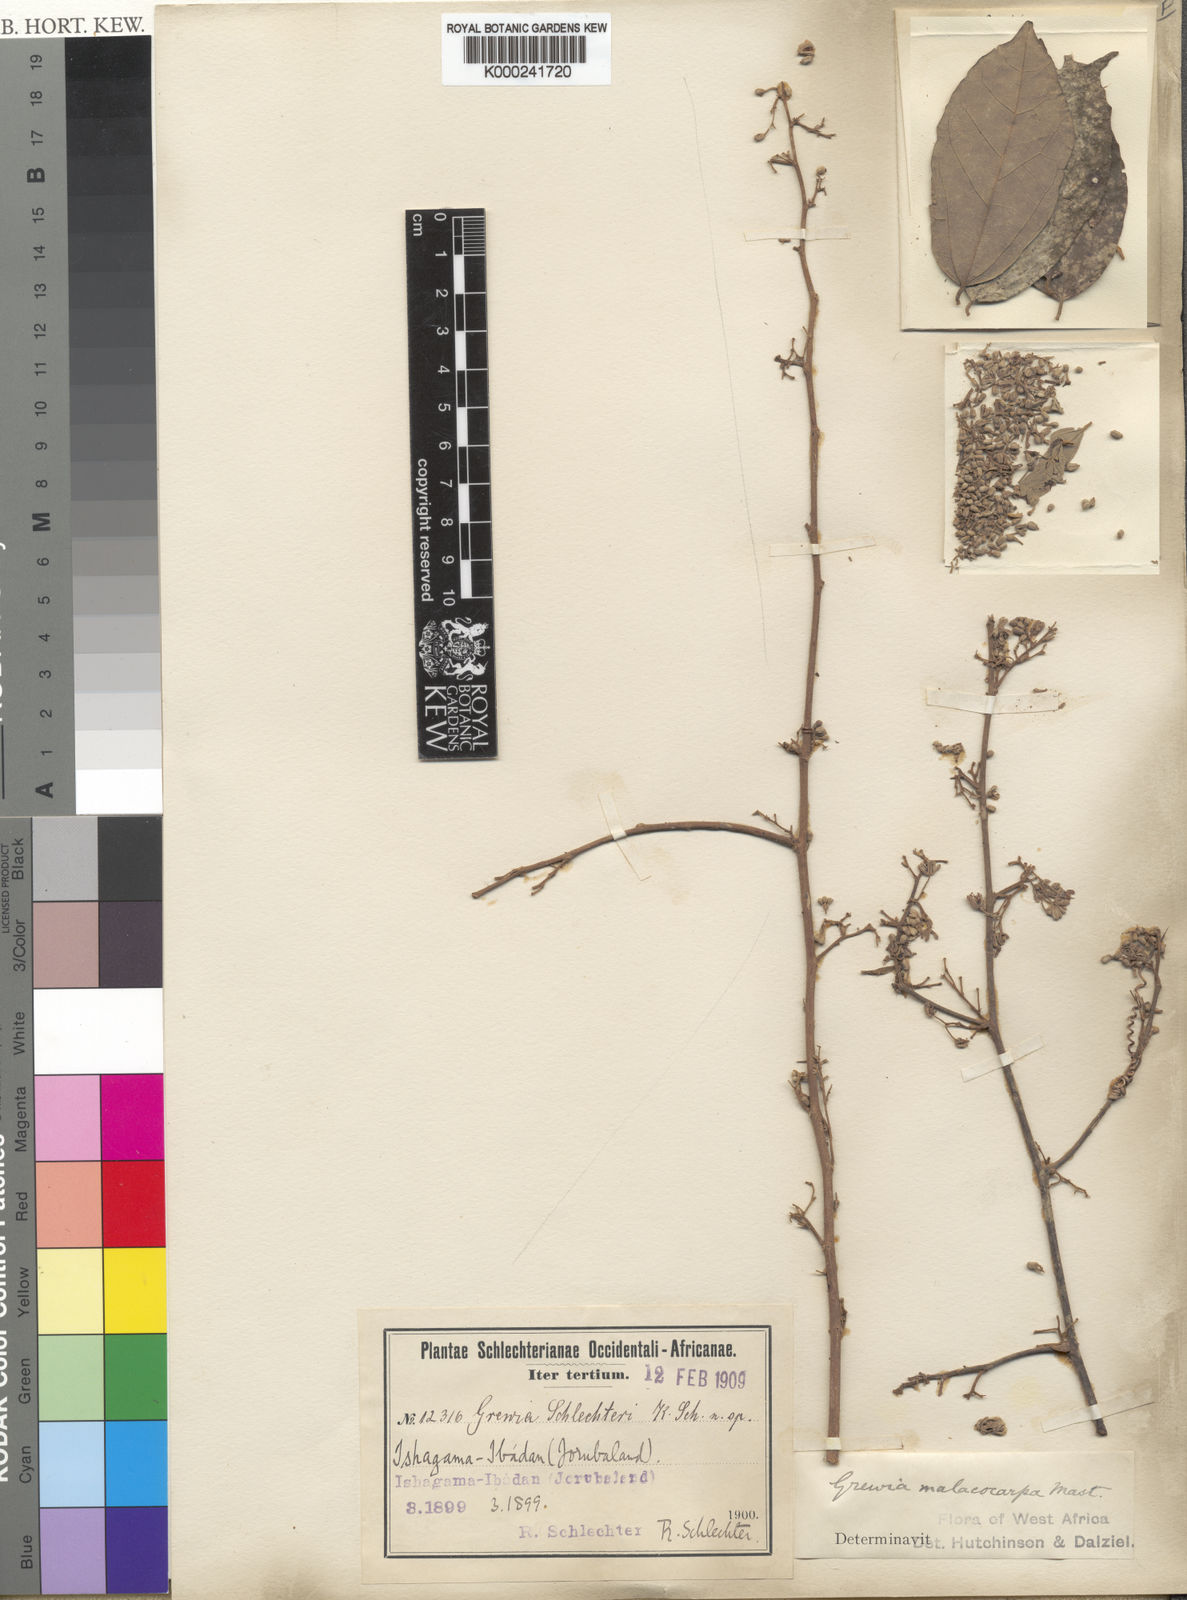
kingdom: Plantae
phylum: Tracheophyta
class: Magnoliopsida
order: Malvales
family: Malvaceae
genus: Microcos
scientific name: Microcos malacocarpa
